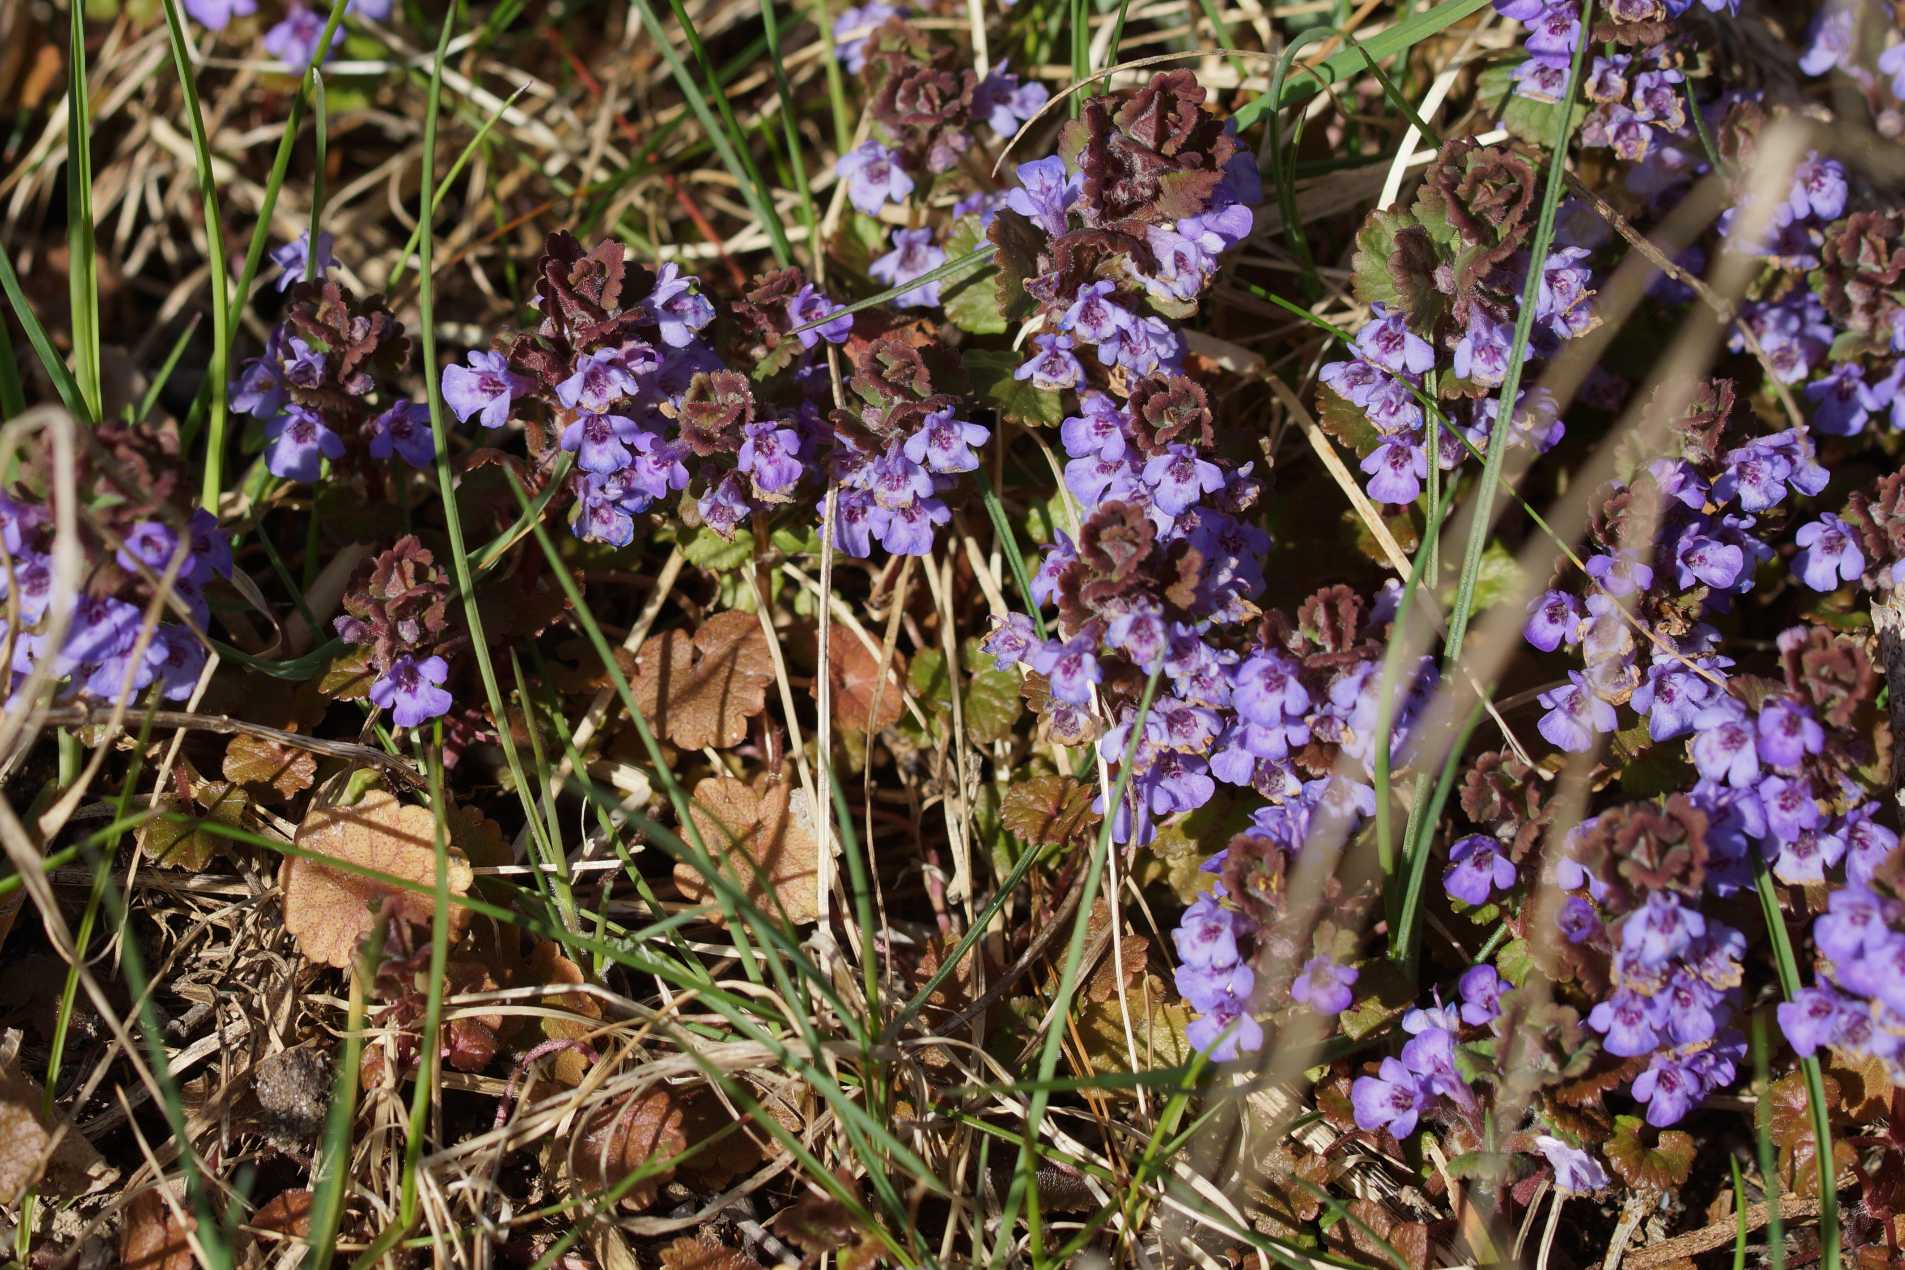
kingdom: Plantae
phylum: Tracheophyta
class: Magnoliopsida
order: Lamiales
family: Lamiaceae
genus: Glechoma
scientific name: Glechoma hederacea
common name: Korsknap
